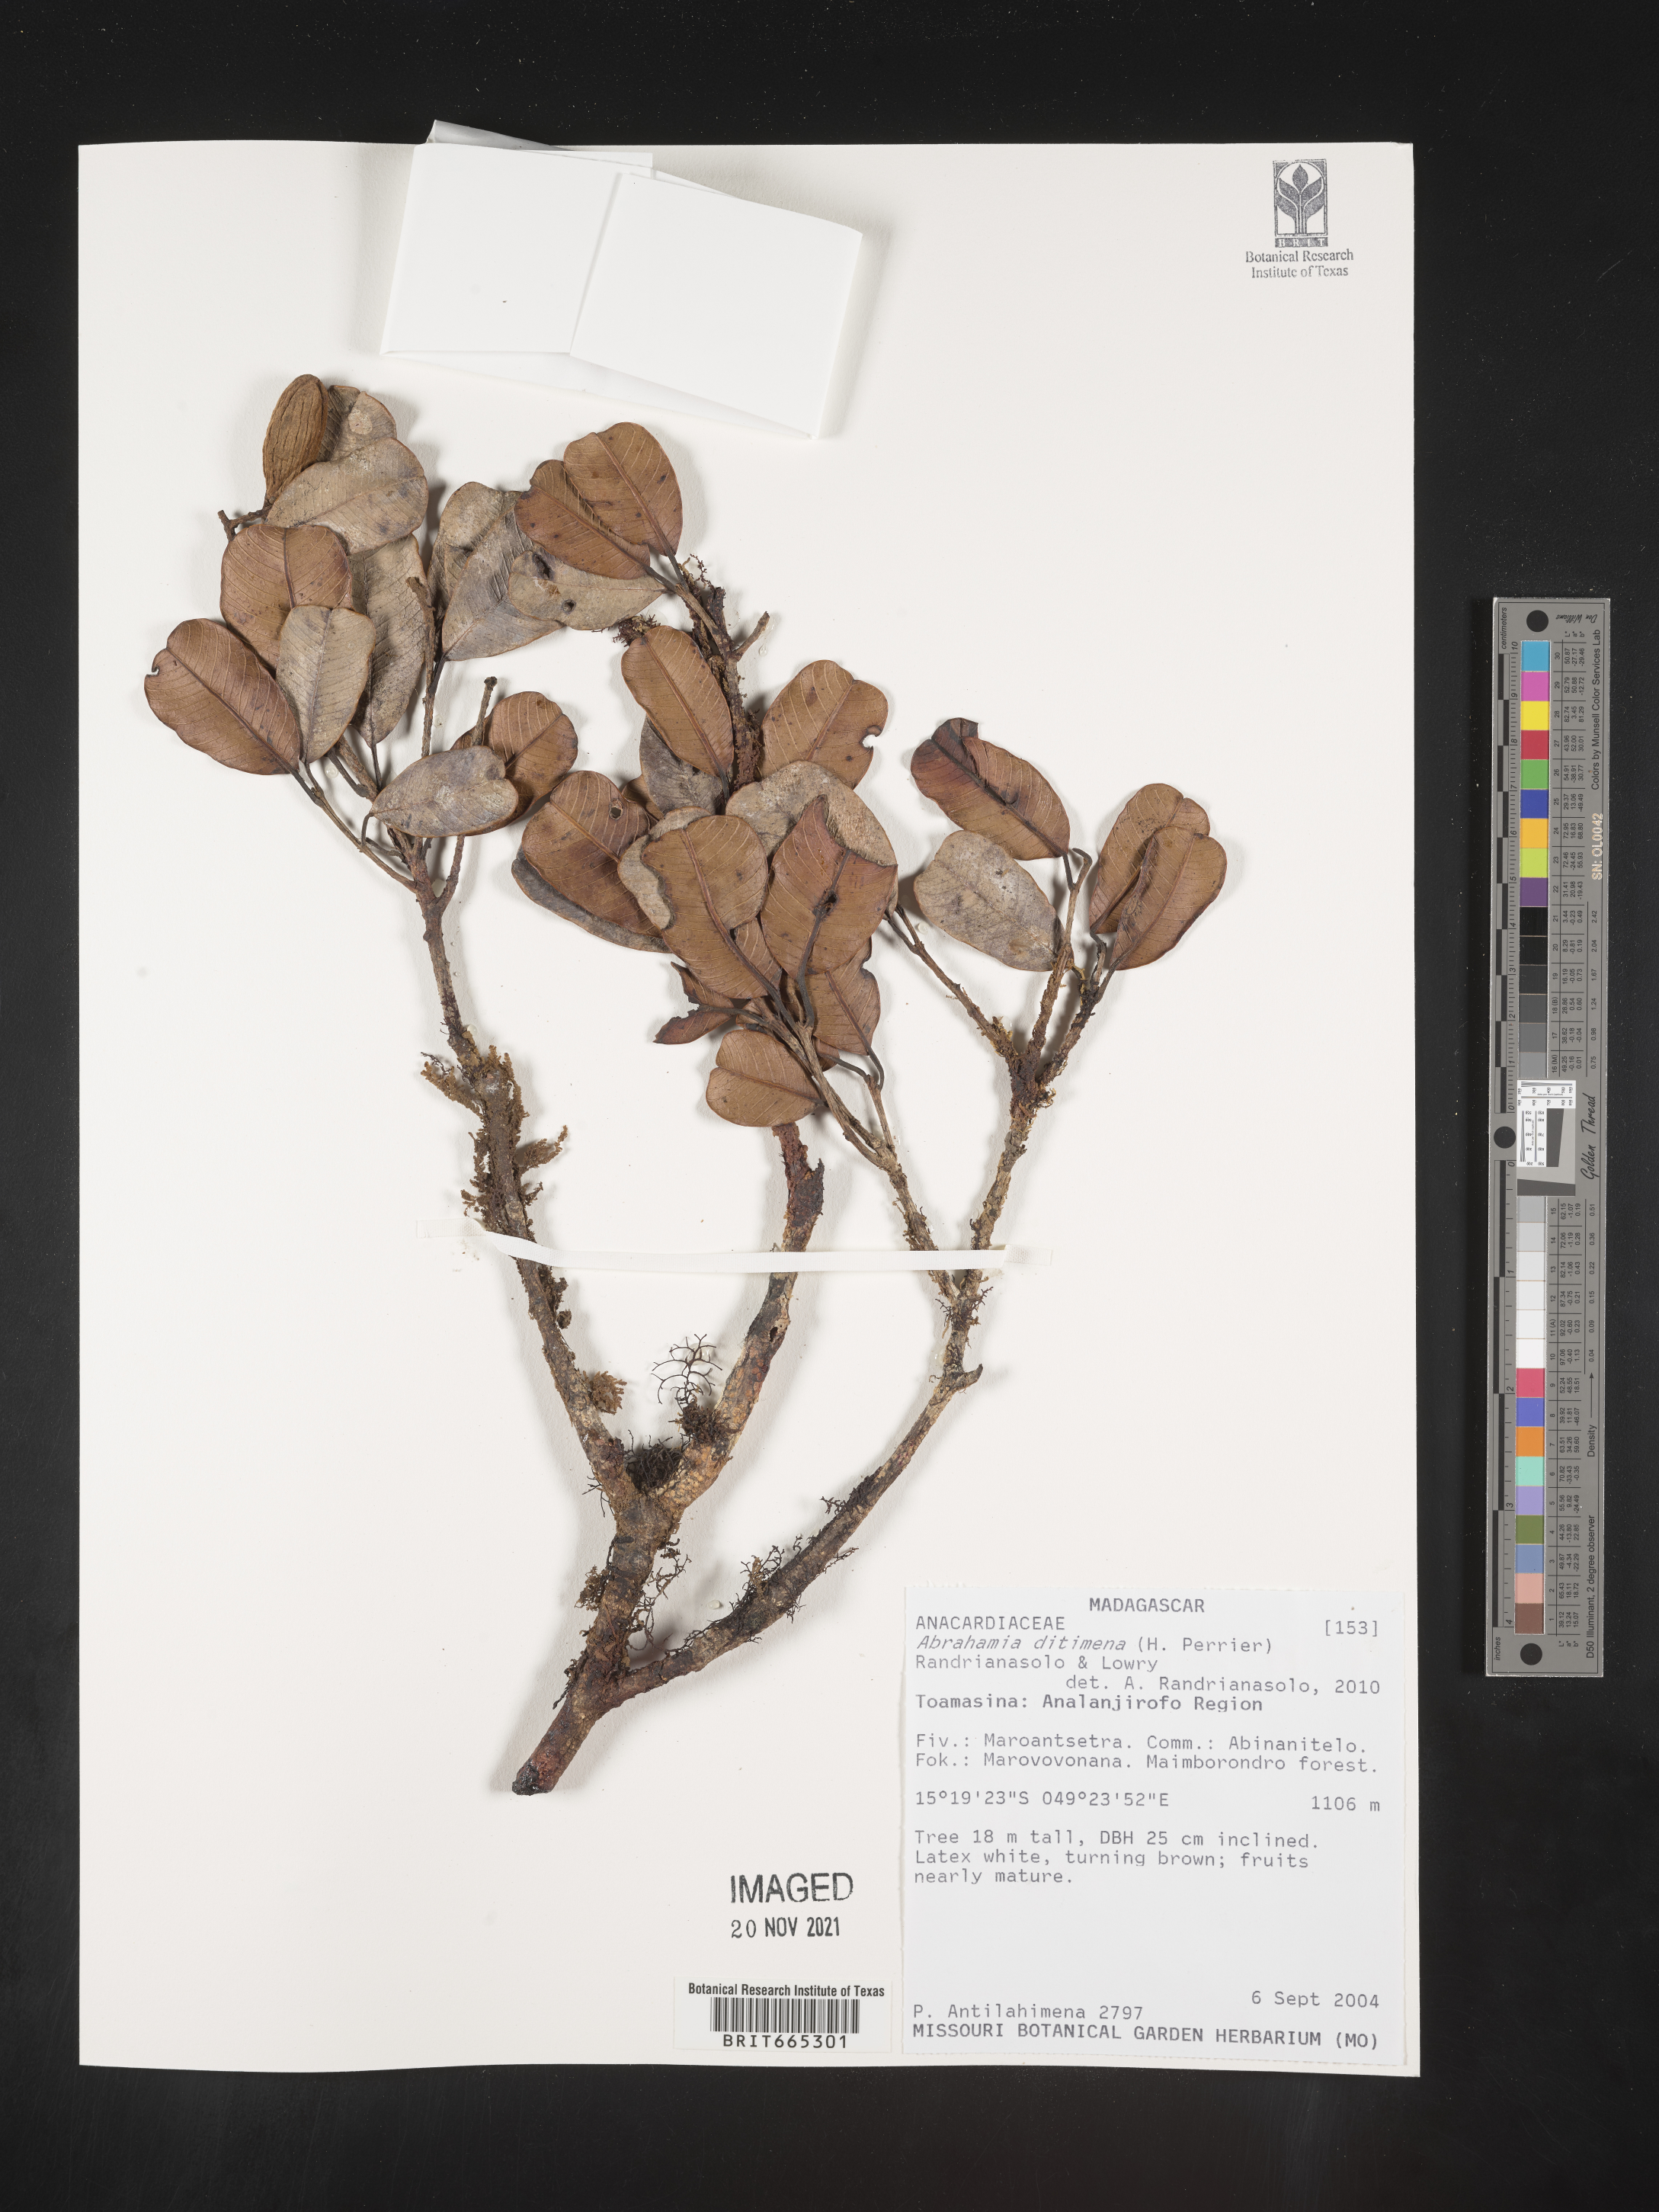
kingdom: Plantae
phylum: Tracheophyta
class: Magnoliopsida
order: Sapindales
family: Anacardiaceae
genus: Abrahamia
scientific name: Abrahamia
